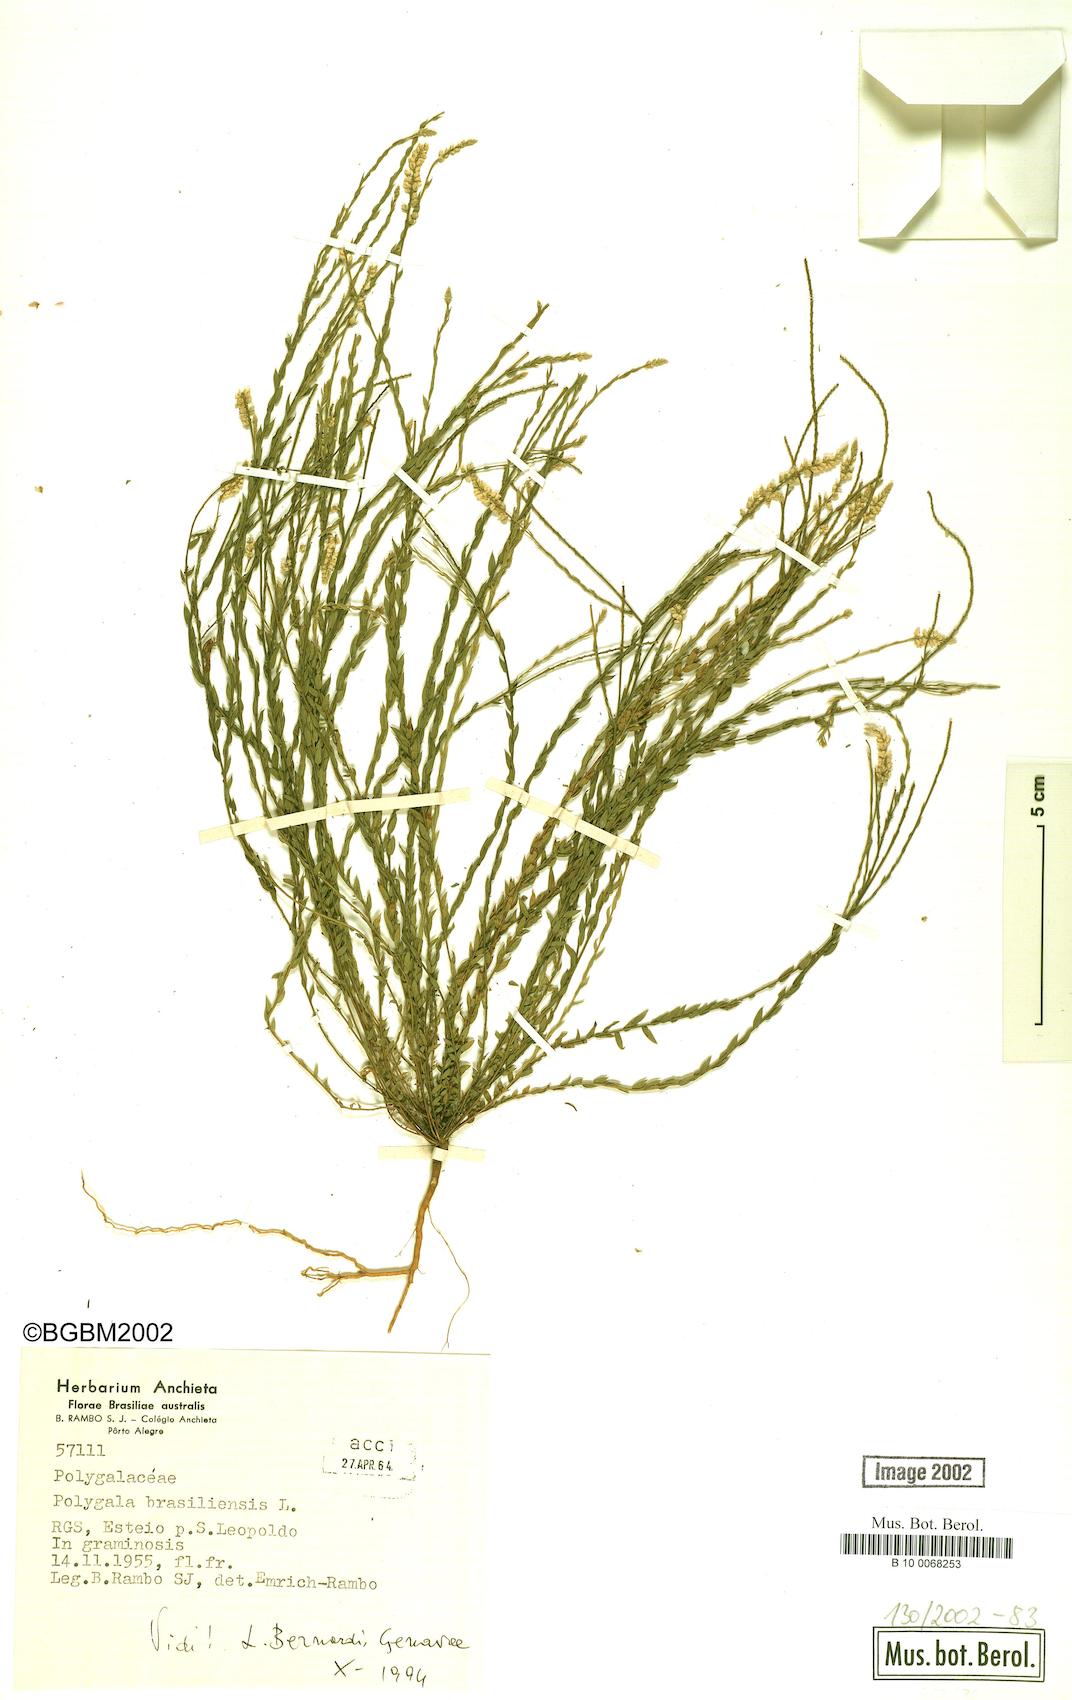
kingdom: Plantae
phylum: Tracheophyta
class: Magnoliopsida
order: Fabales
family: Polygalaceae
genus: Polygala
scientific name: Polygala brasiliensis
